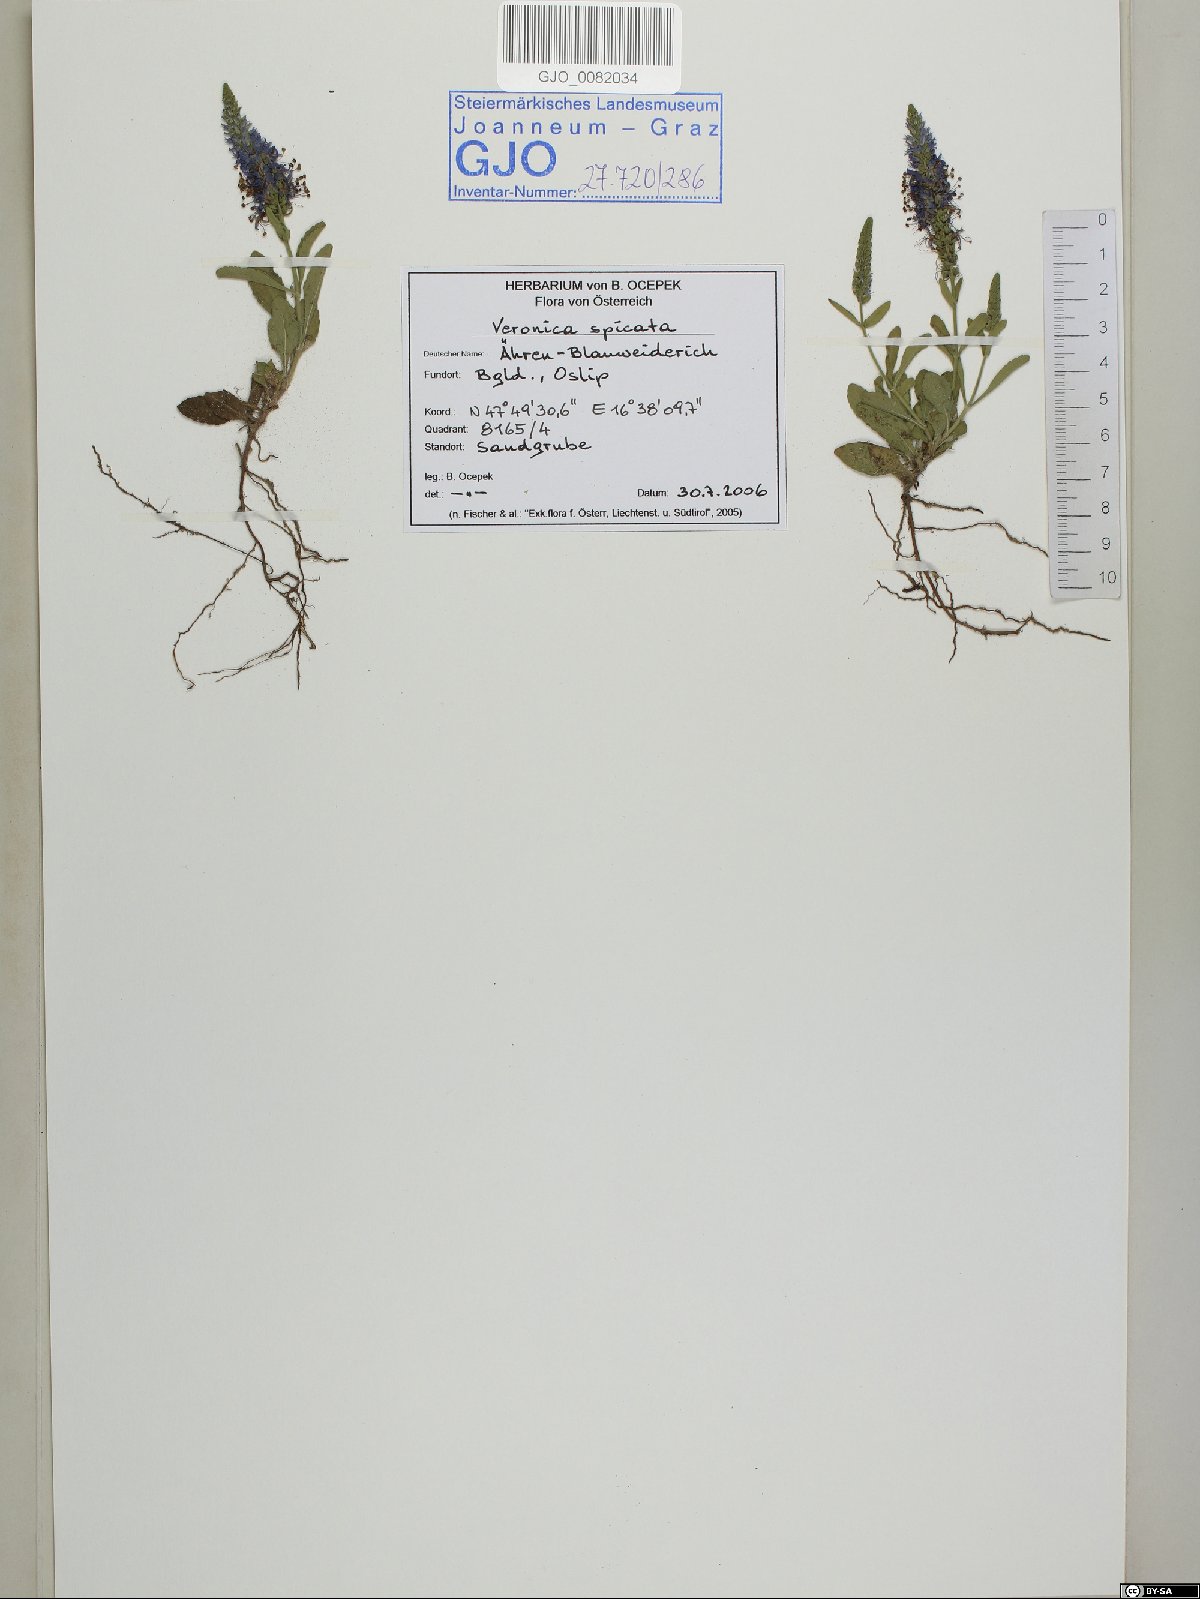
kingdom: Plantae
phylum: Tracheophyta
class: Magnoliopsida
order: Lamiales
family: Plantaginaceae
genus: Veronica
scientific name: Veronica spicata
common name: Spiked speedwell
